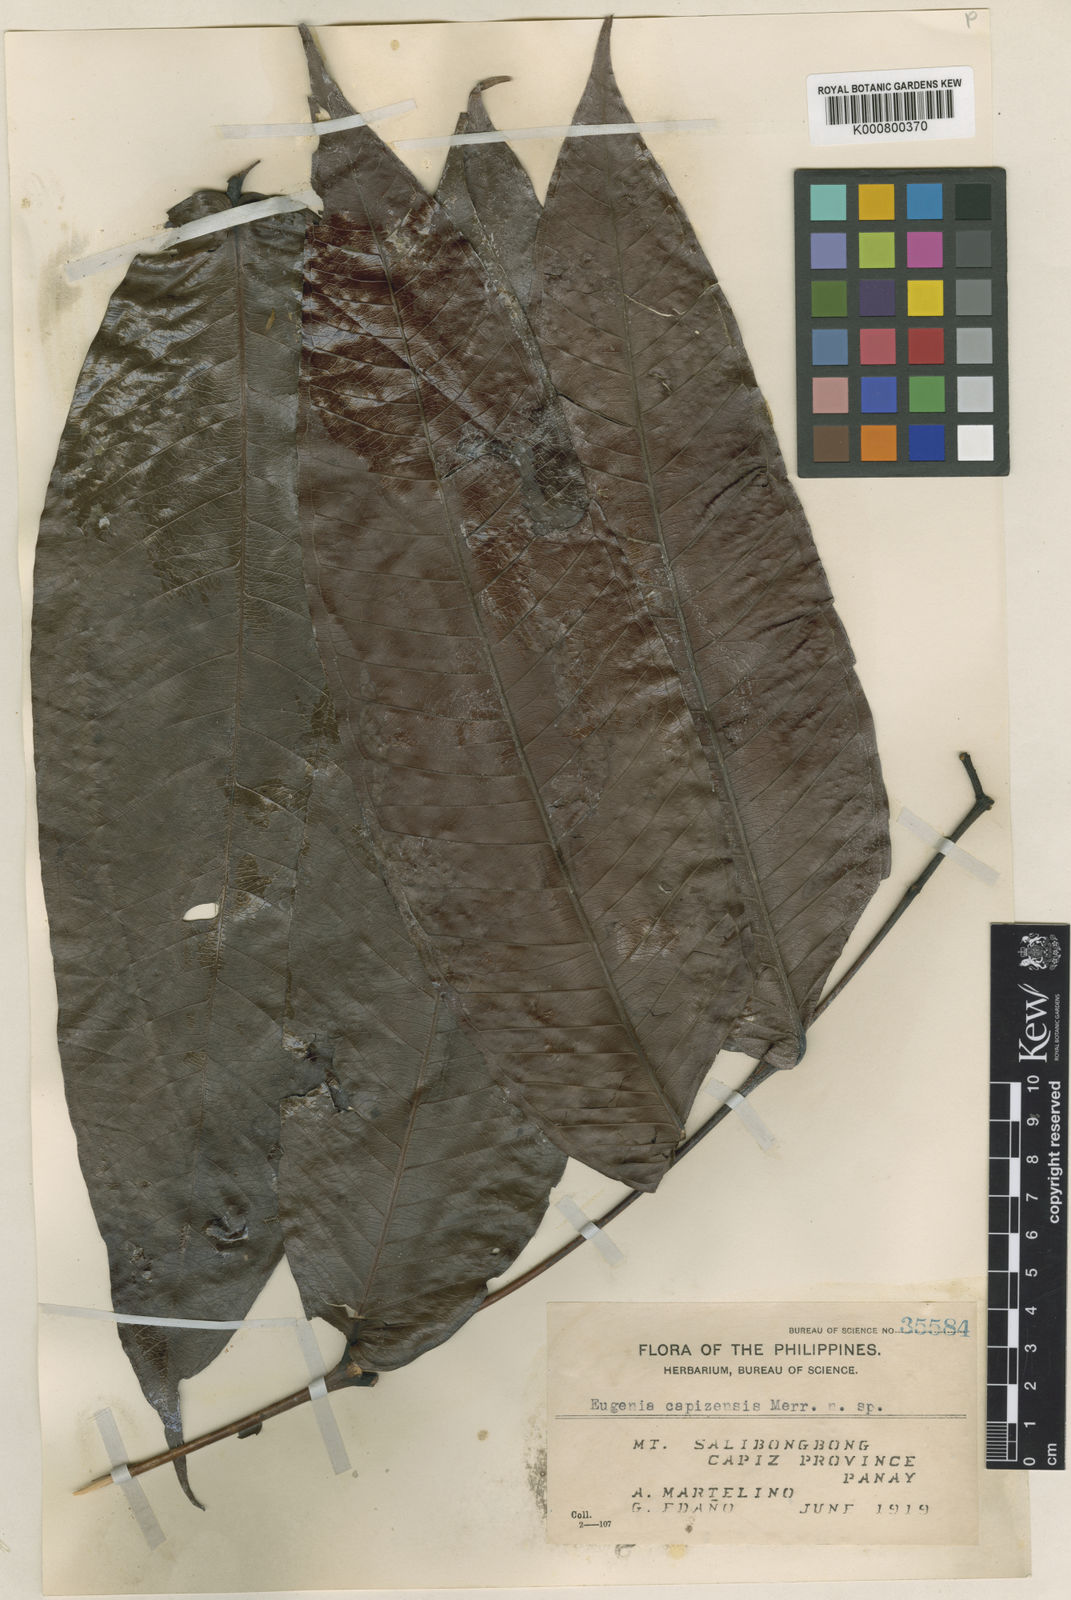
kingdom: Plantae
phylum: Tracheophyta
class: Magnoliopsida
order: Myrtales
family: Myrtaceae
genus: Syzygium
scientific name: Syzygium urdanetense
